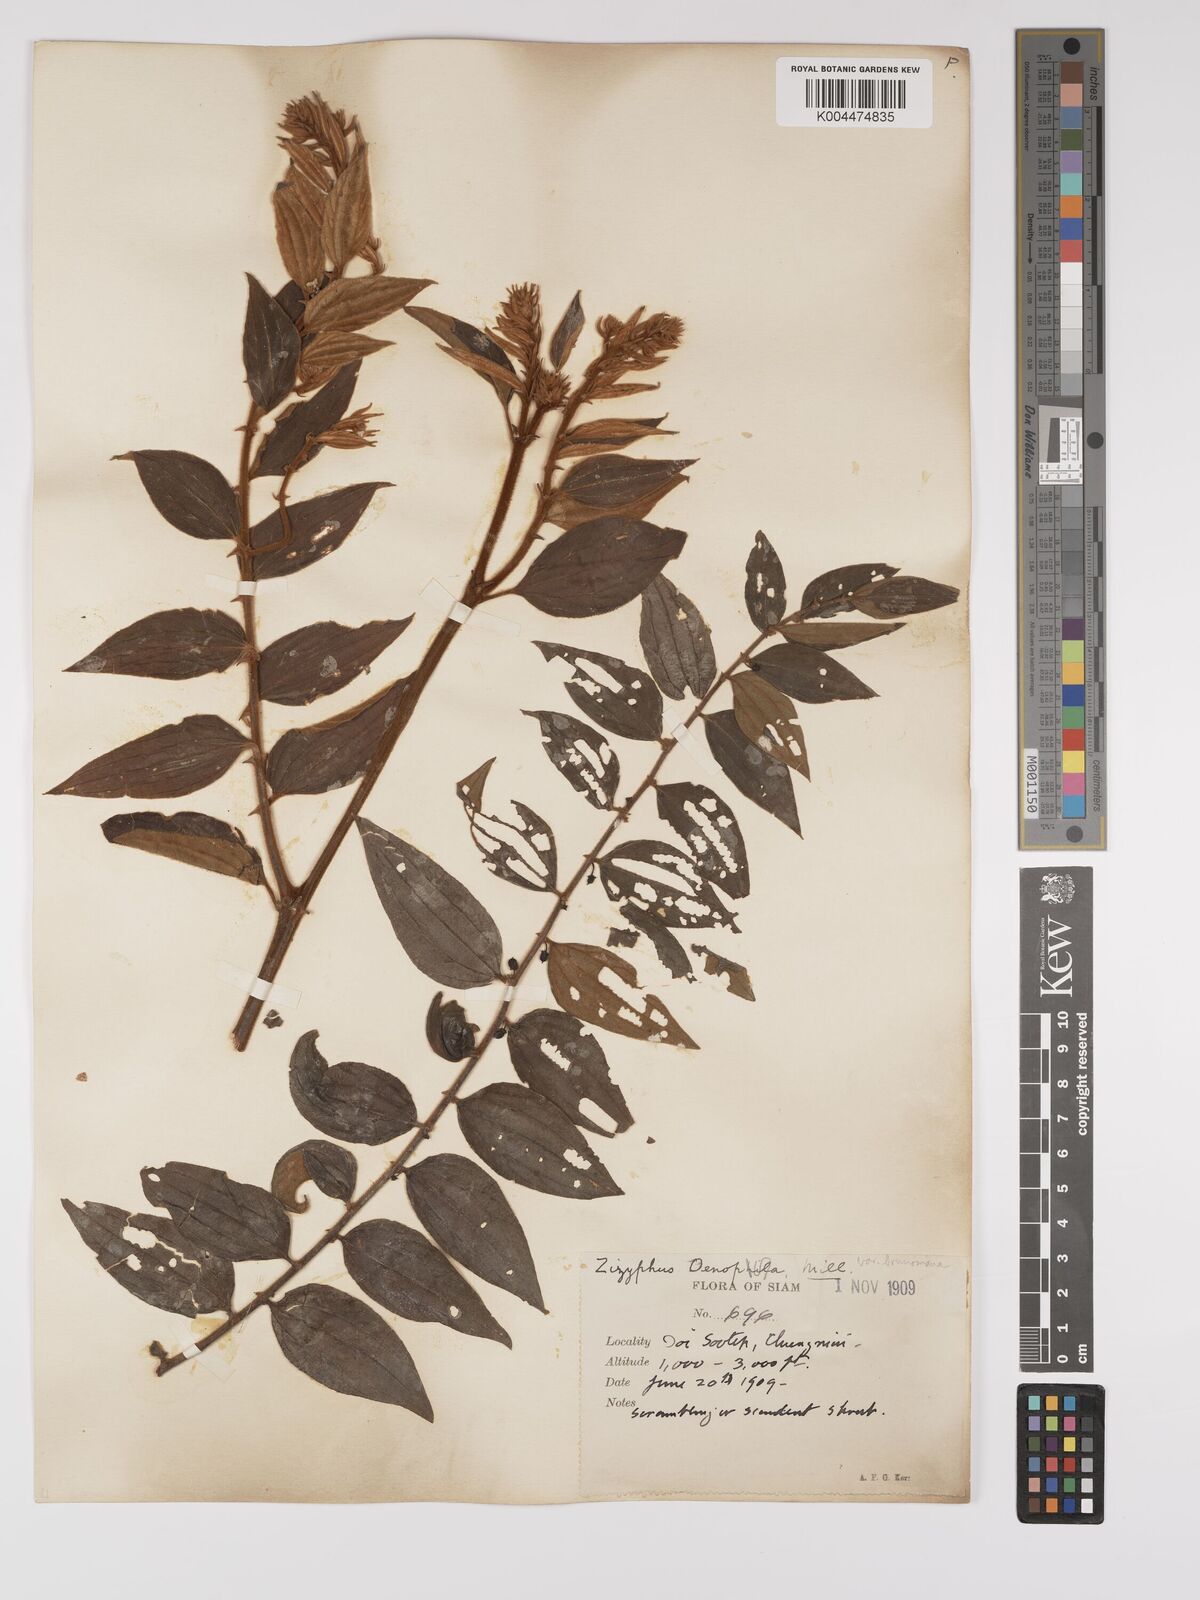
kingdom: Plantae
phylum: Tracheophyta
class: Magnoliopsida
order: Rosales
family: Rhamnaceae
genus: Ziziphus
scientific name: Ziziphus oenopolia
